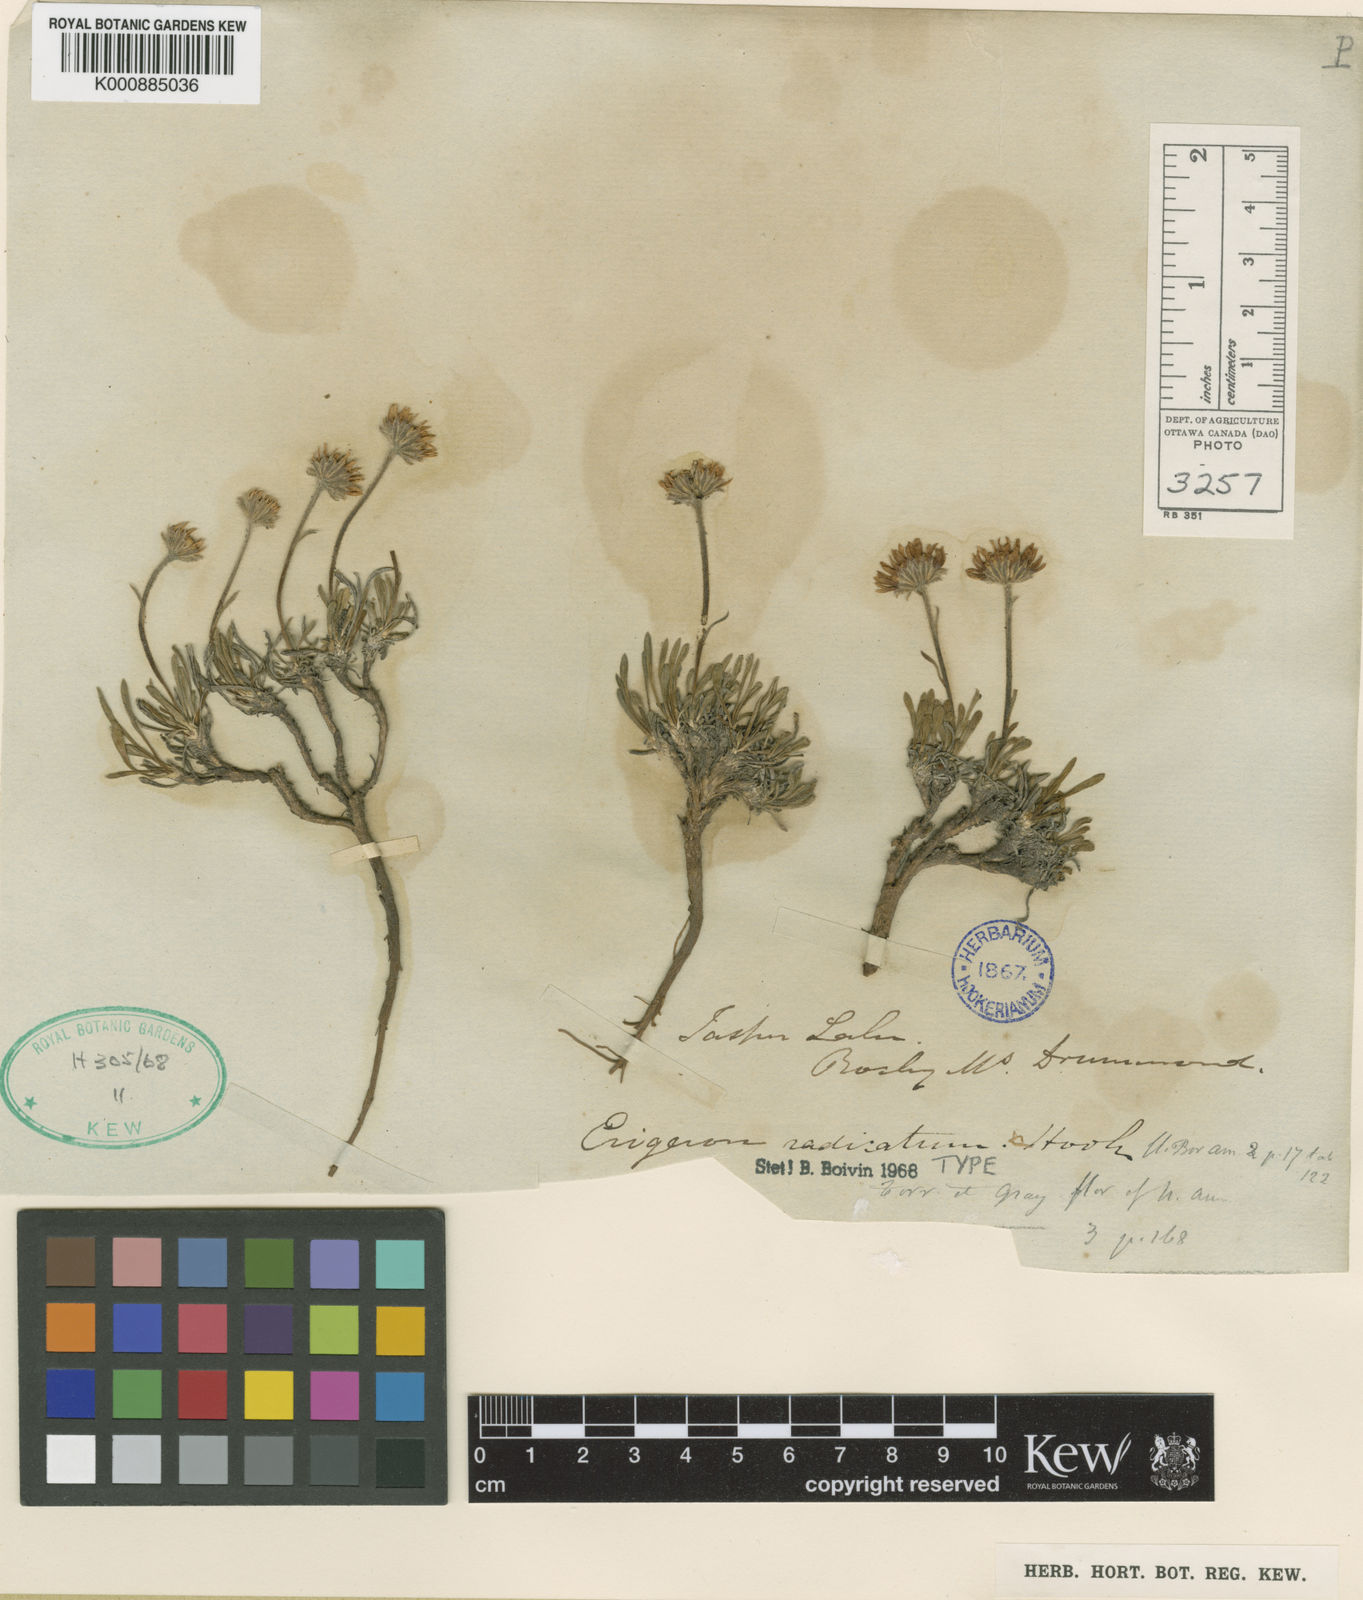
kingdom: Plantae
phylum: Tracheophyta
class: Magnoliopsida
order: Asterales
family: Asteraceae
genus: Erigeron
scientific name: Erigeron radicatus
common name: Dwarf fleabane
